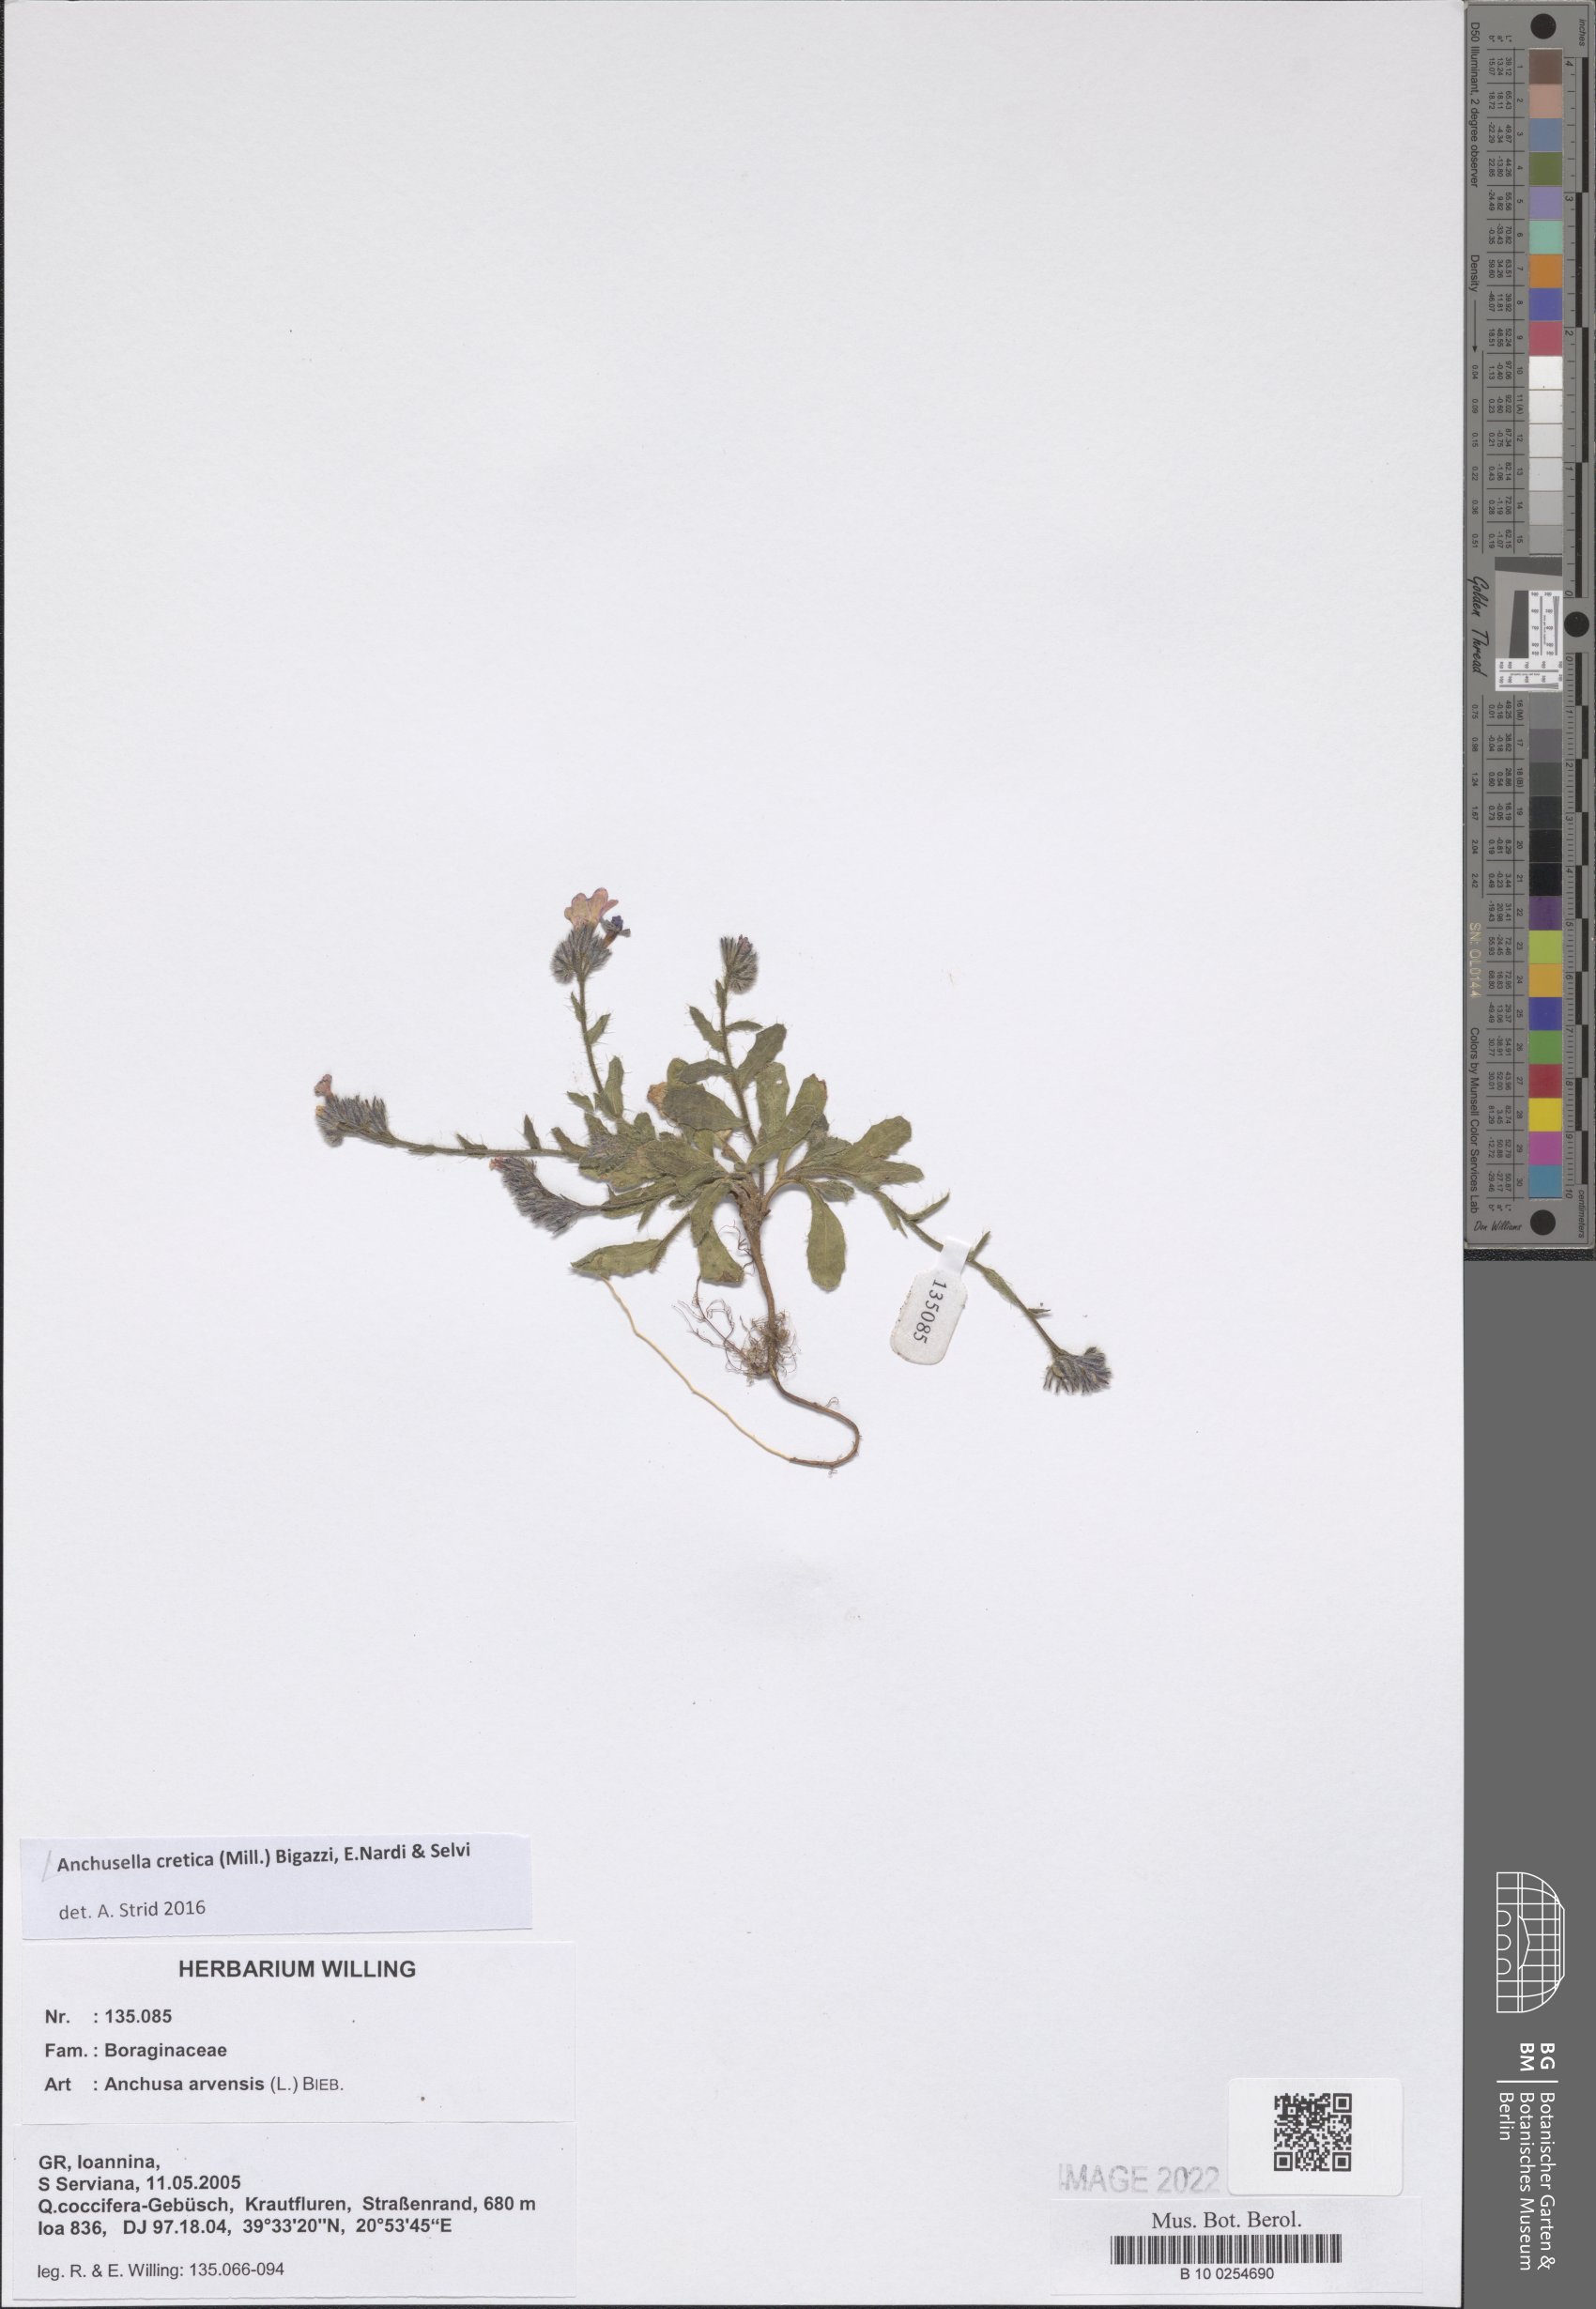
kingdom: Plantae
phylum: Tracheophyta
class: Magnoliopsida
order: Boraginales
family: Boraginaceae
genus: Anchusella
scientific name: Anchusella cretica
